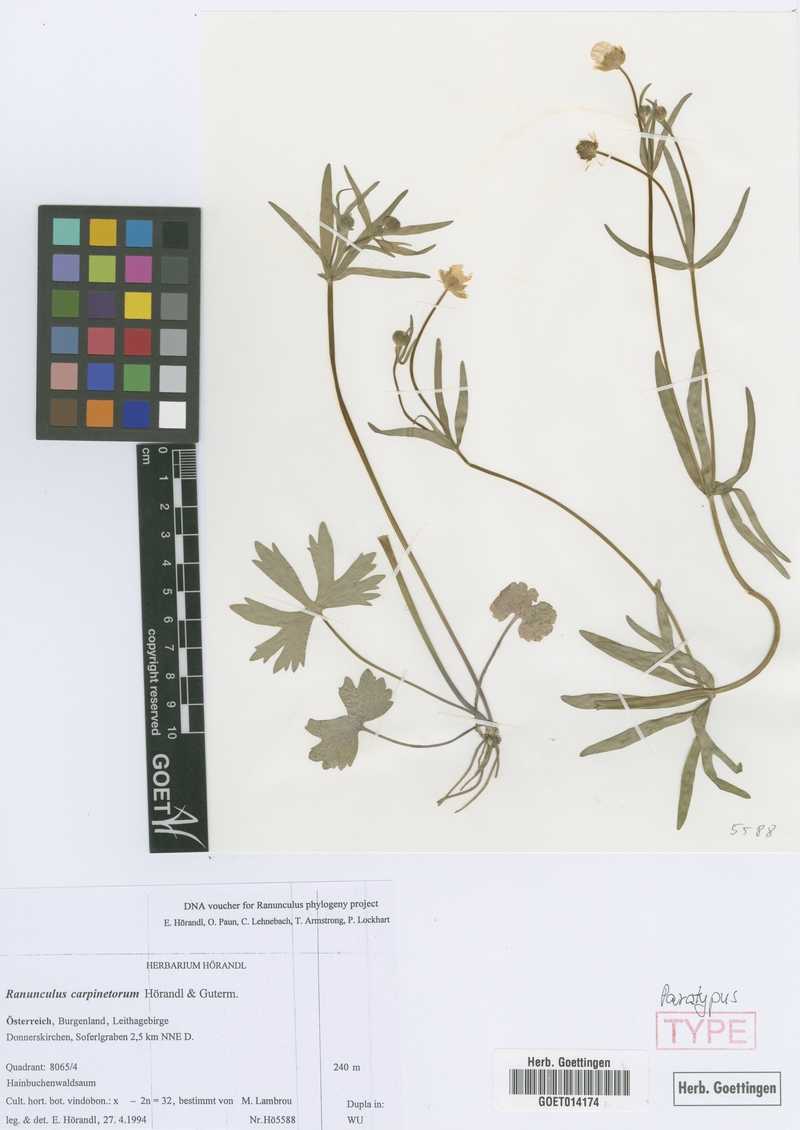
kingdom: Plantae
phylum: Tracheophyta
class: Magnoliopsida
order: Ranunculales
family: Ranunculaceae
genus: Ranunculus
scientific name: Ranunculus carpinetorum
